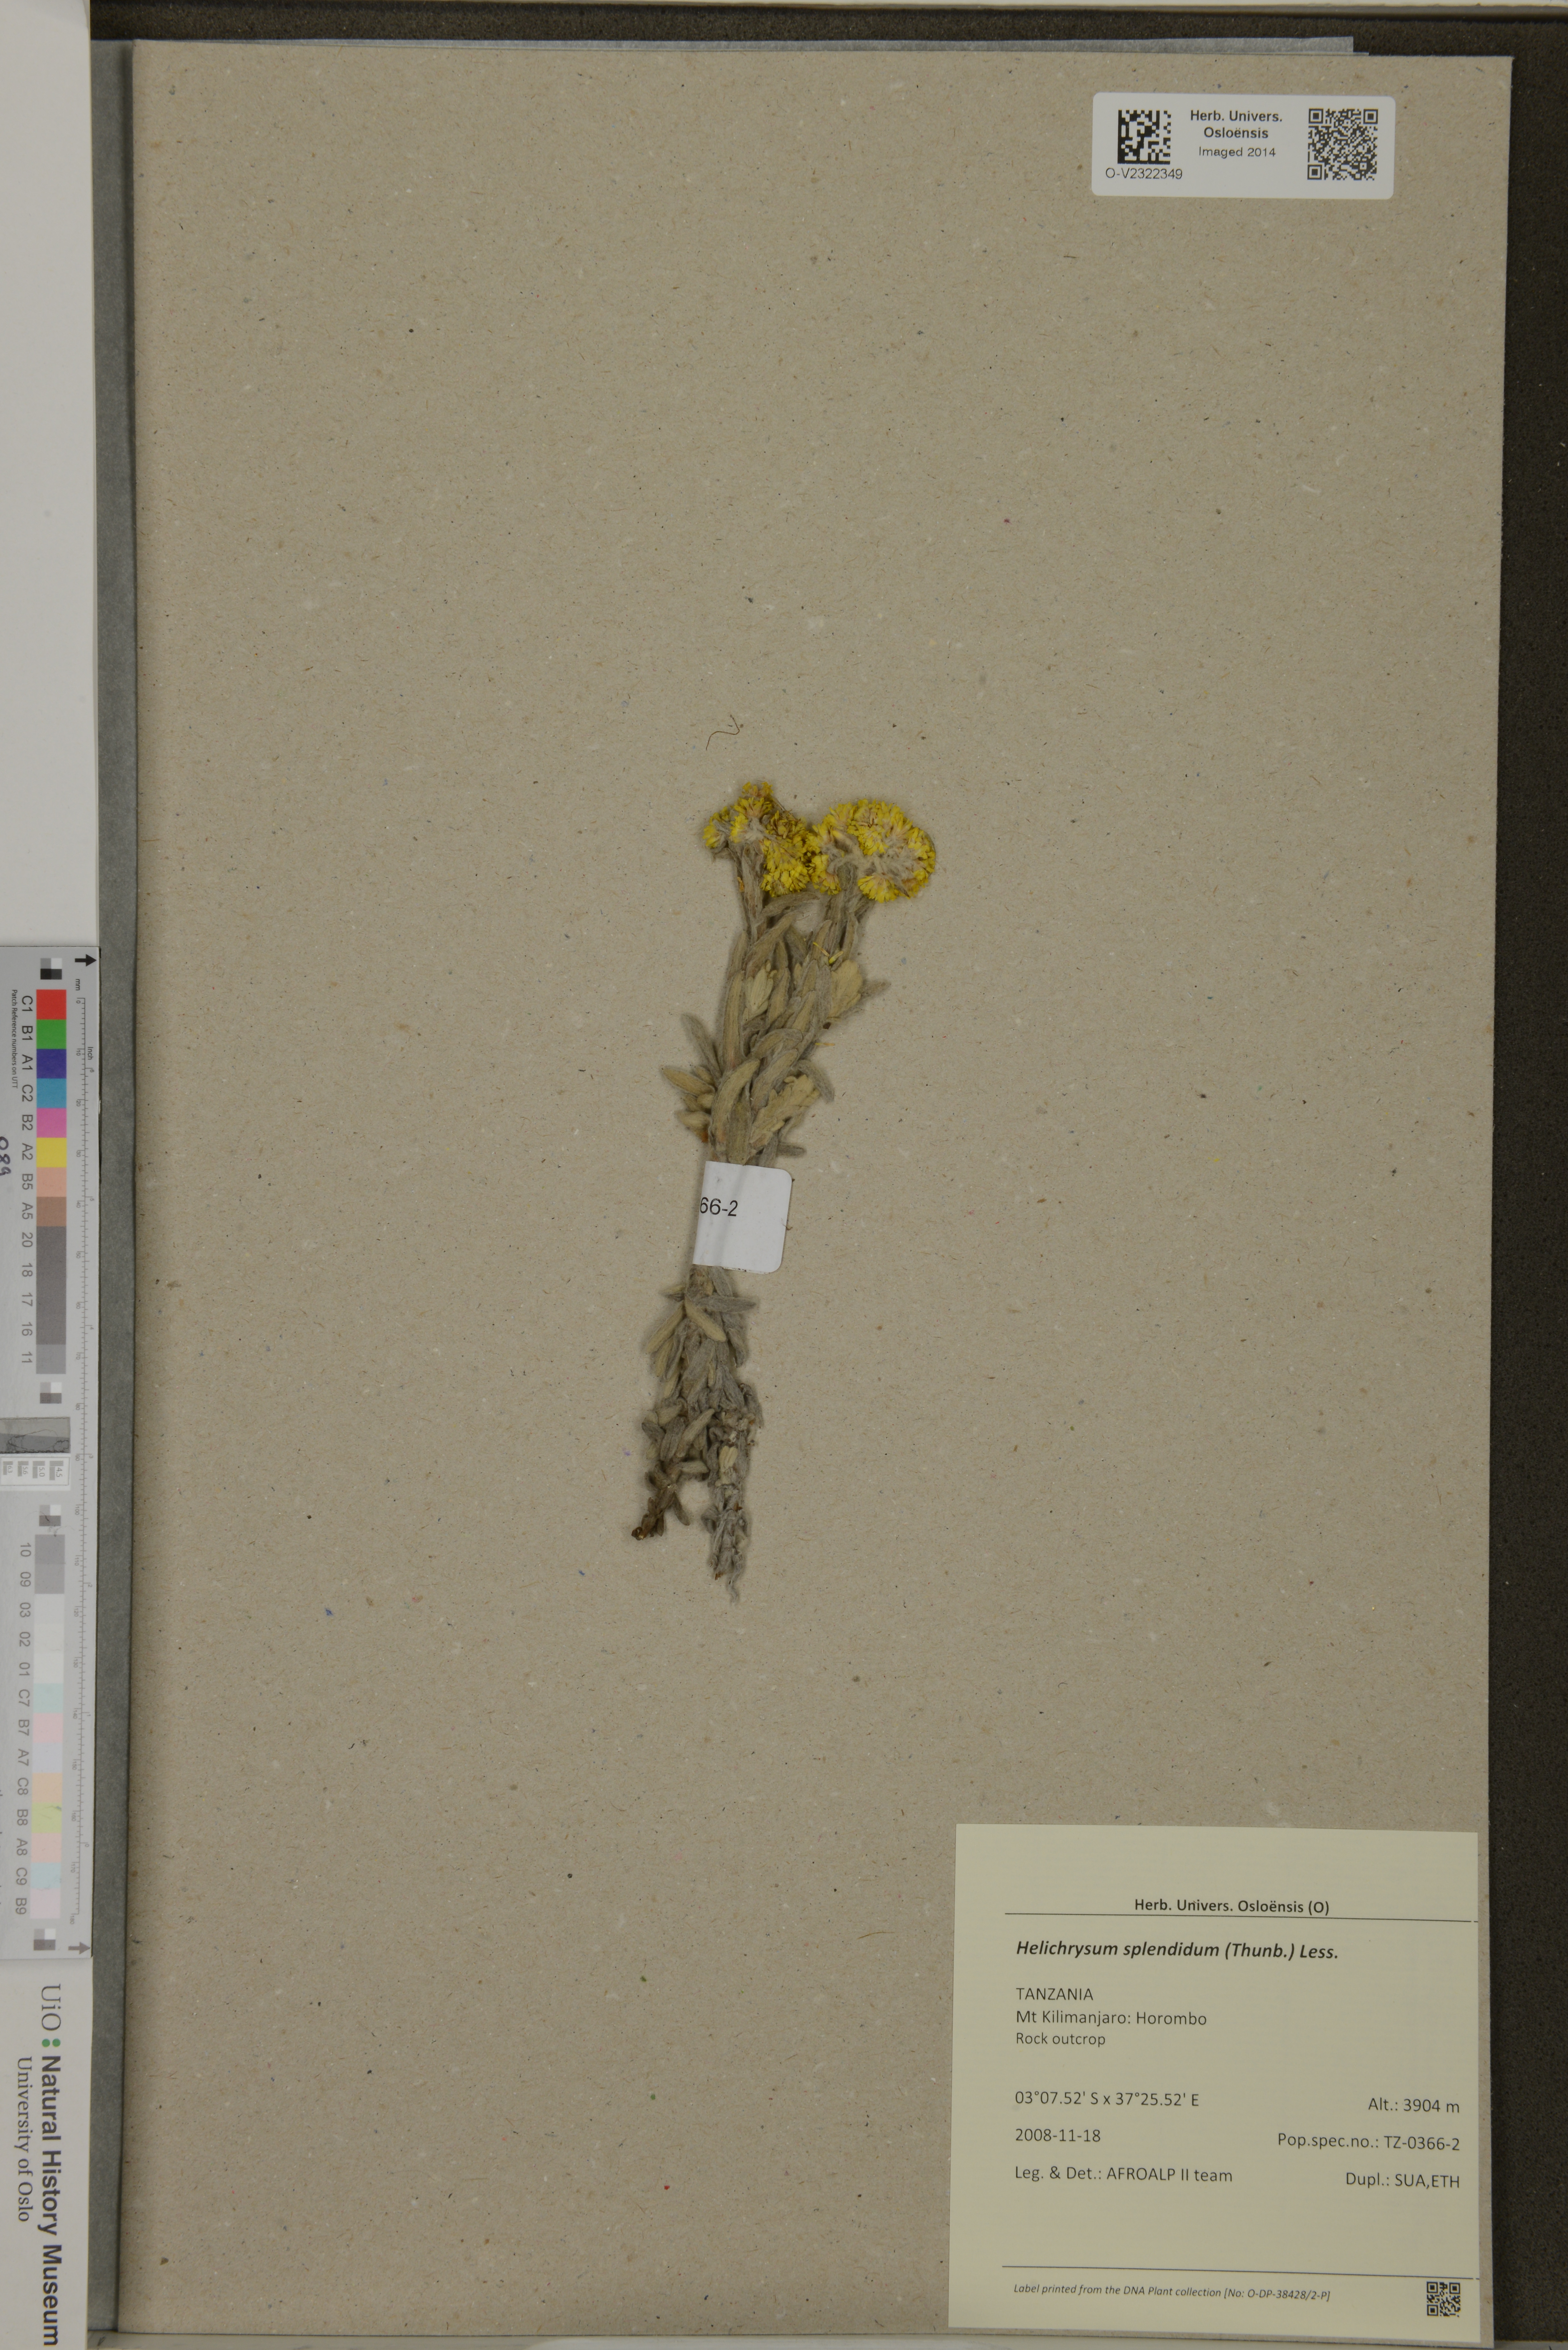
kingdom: Plantae
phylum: Tracheophyta
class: Magnoliopsida
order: Asterales
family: Asteraceae
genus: Helichrysum
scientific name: Helichrysum splendidum
